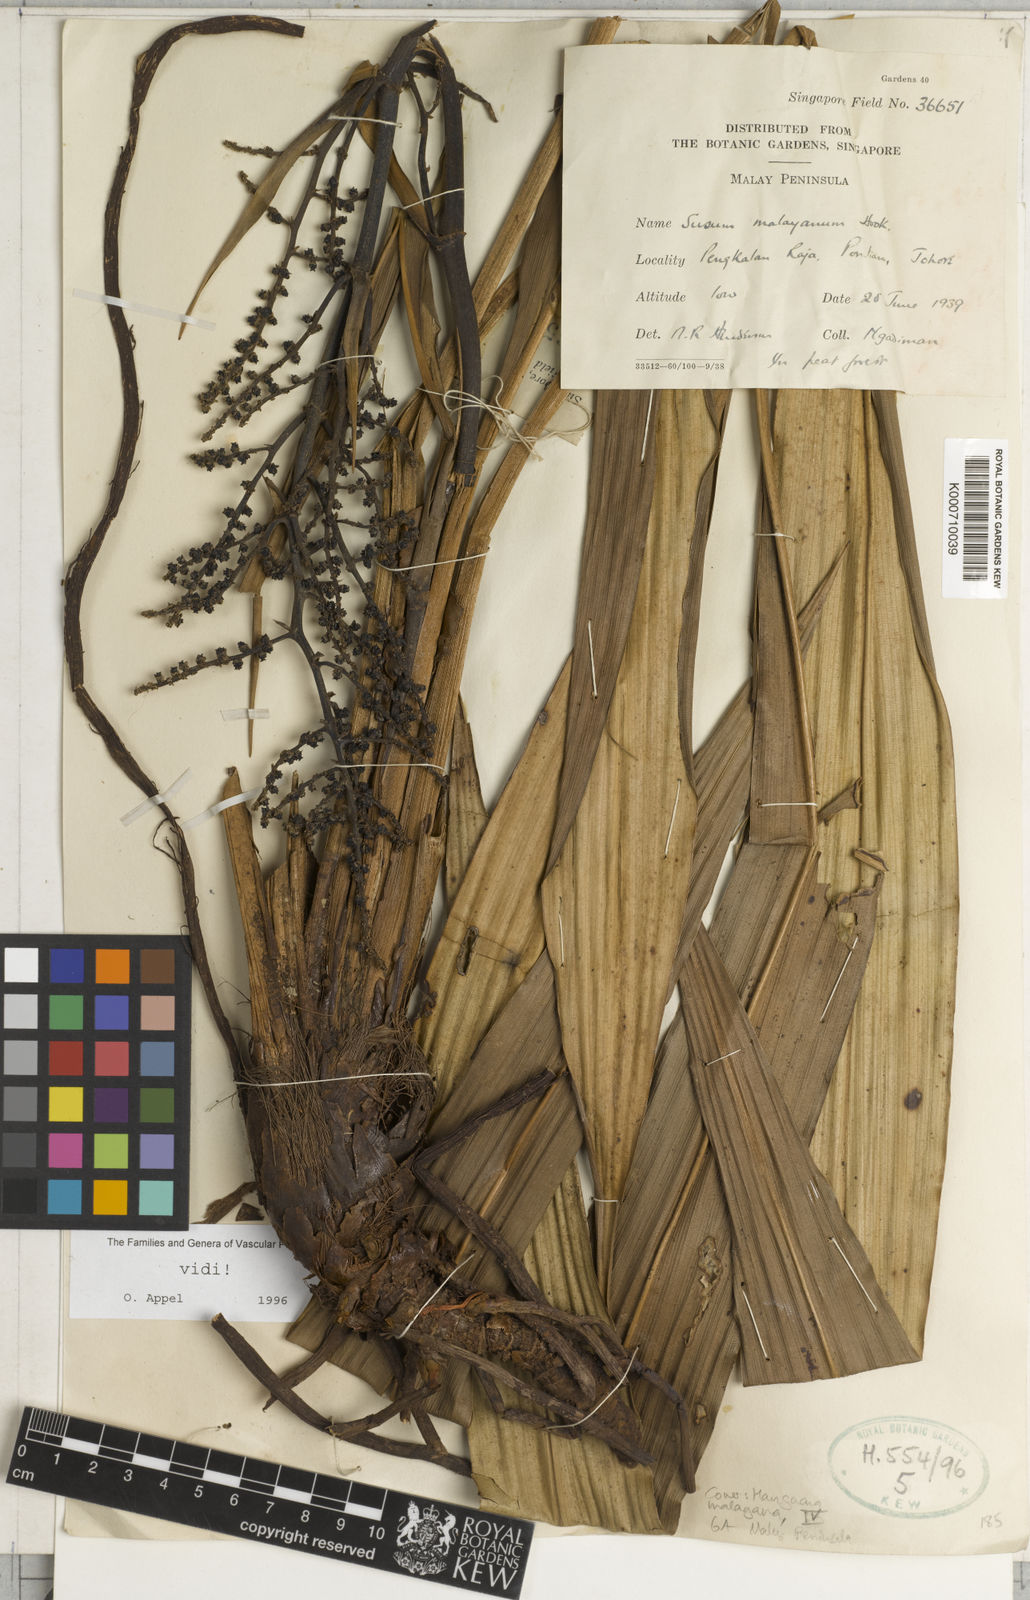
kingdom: Plantae
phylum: Tracheophyta
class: Liliopsida
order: Commelinales
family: Hanguanaceae
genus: Hanguana
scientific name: Hanguana malayana
